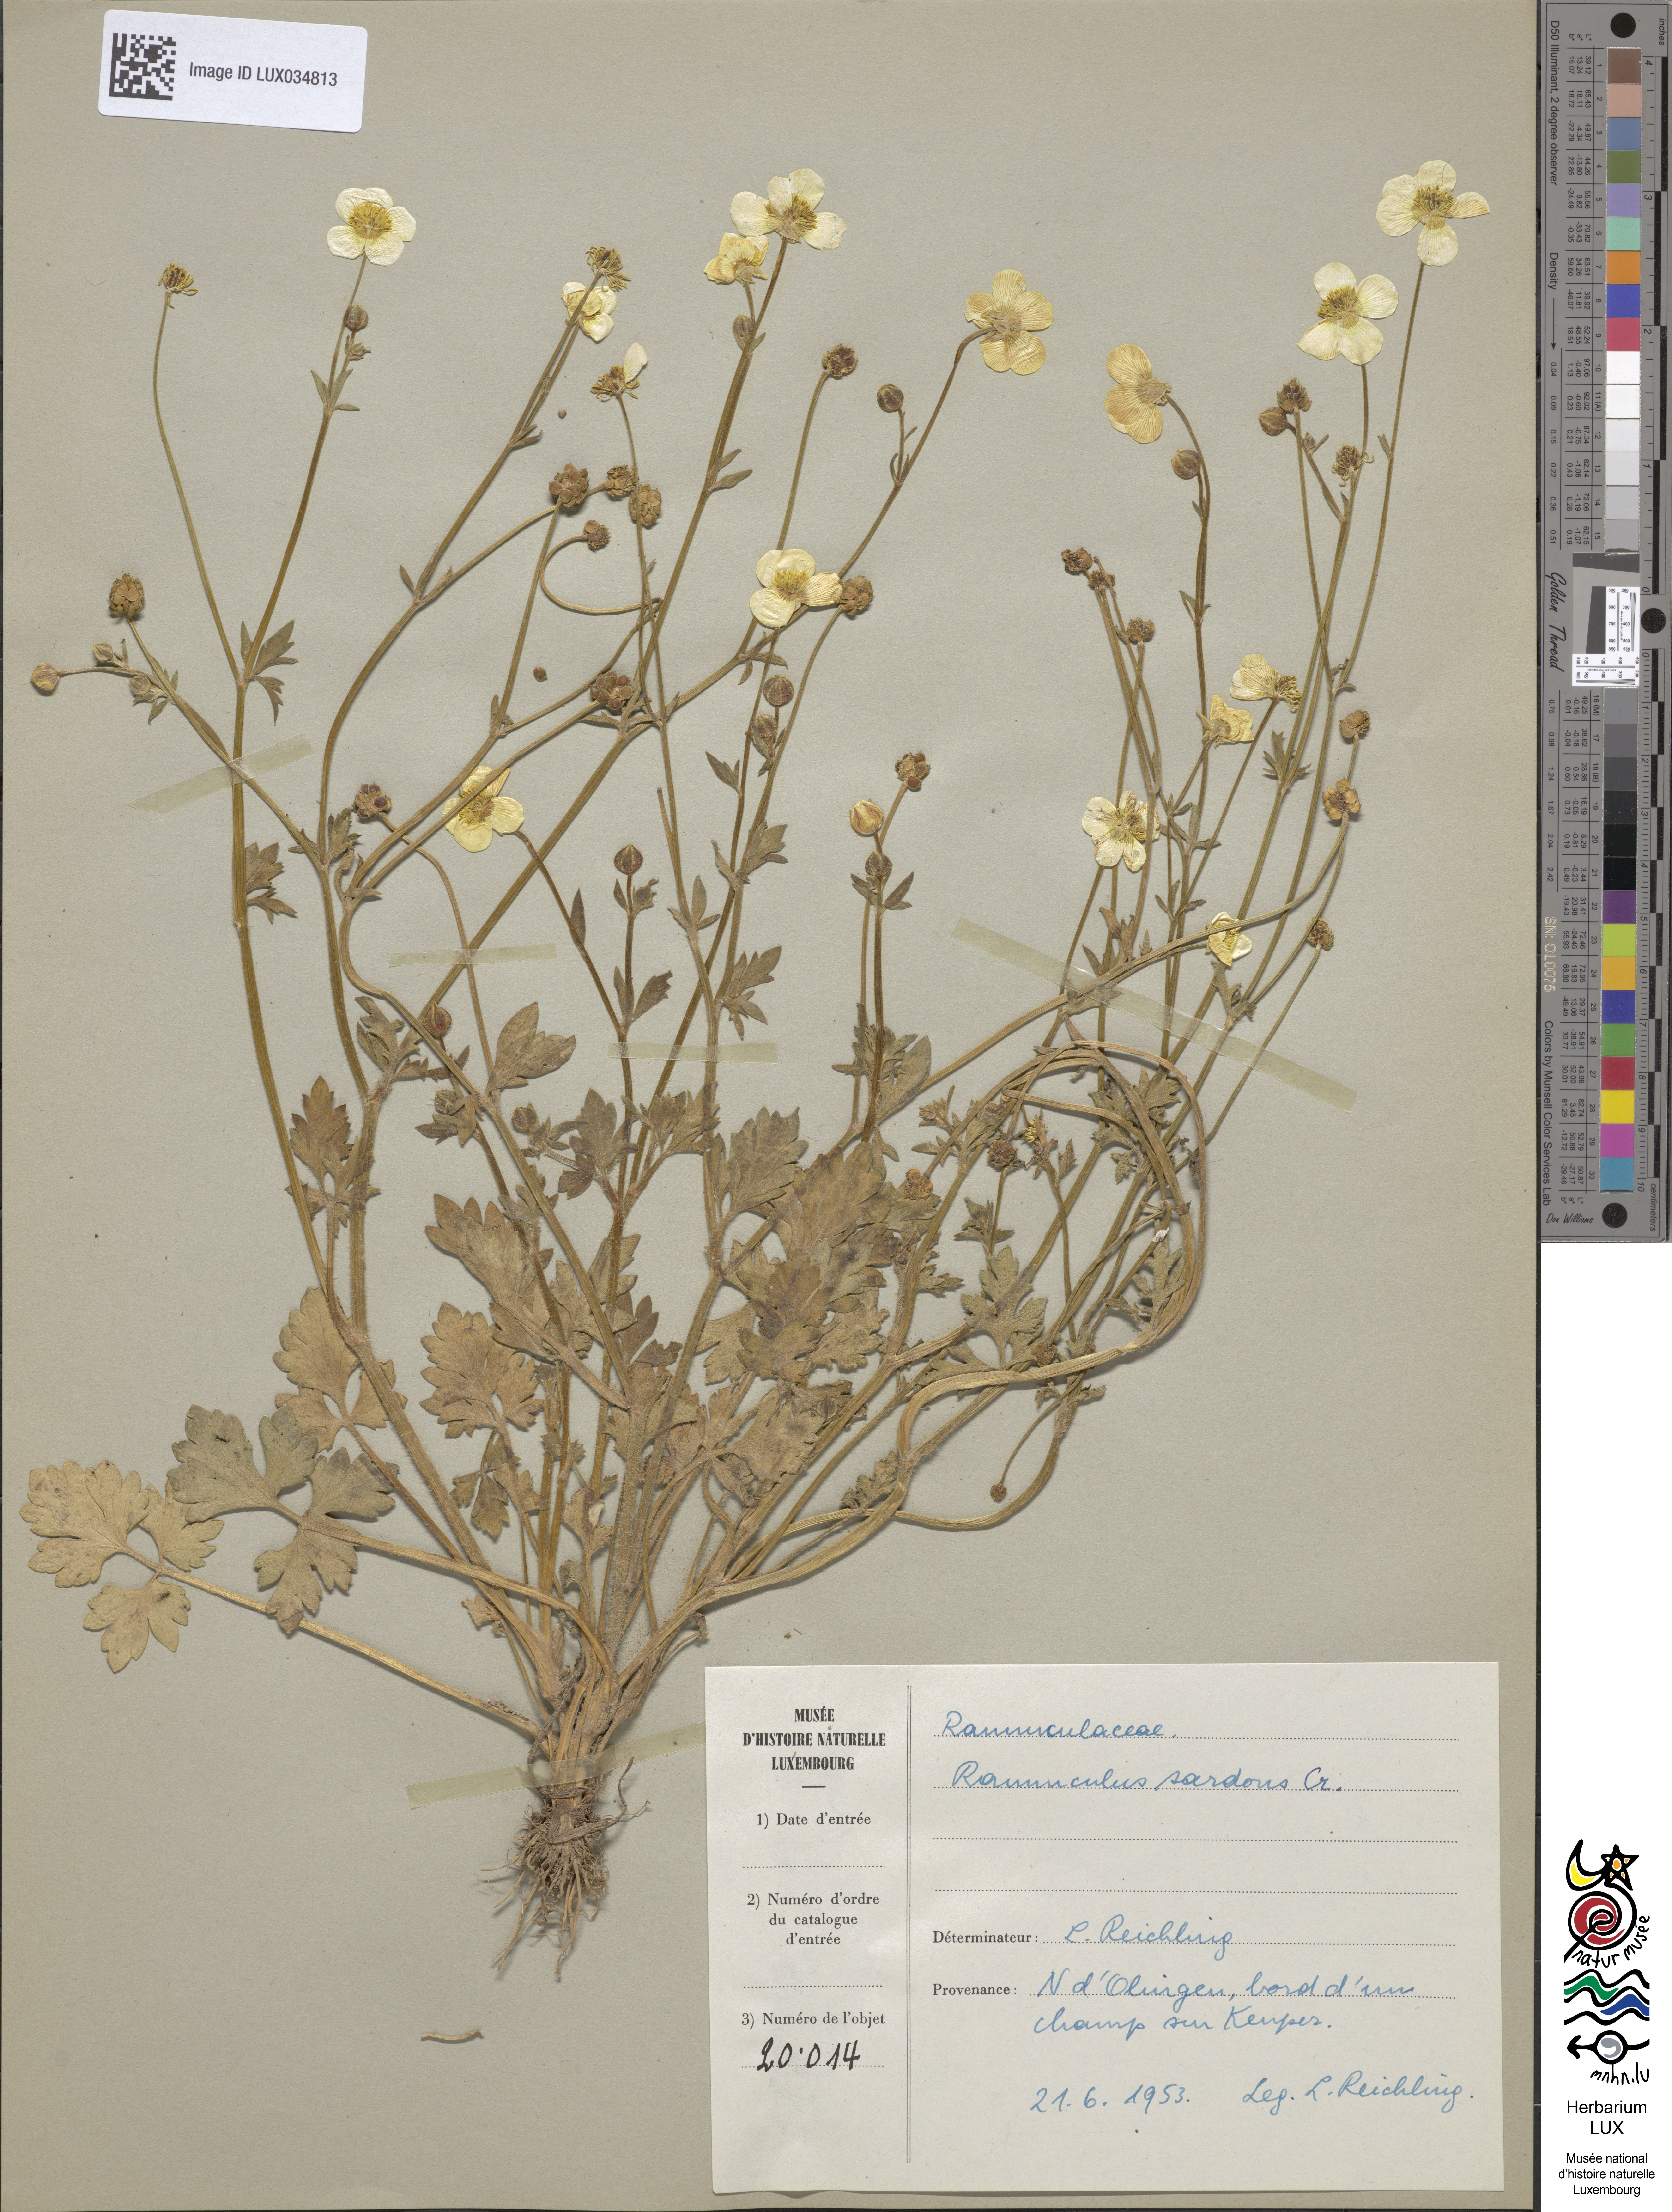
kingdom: Plantae
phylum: Tracheophyta
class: Magnoliopsida
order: Ranunculales
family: Ranunculaceae
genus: Ranunculus
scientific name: Ranunculus sardous
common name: Hairy buttercup
